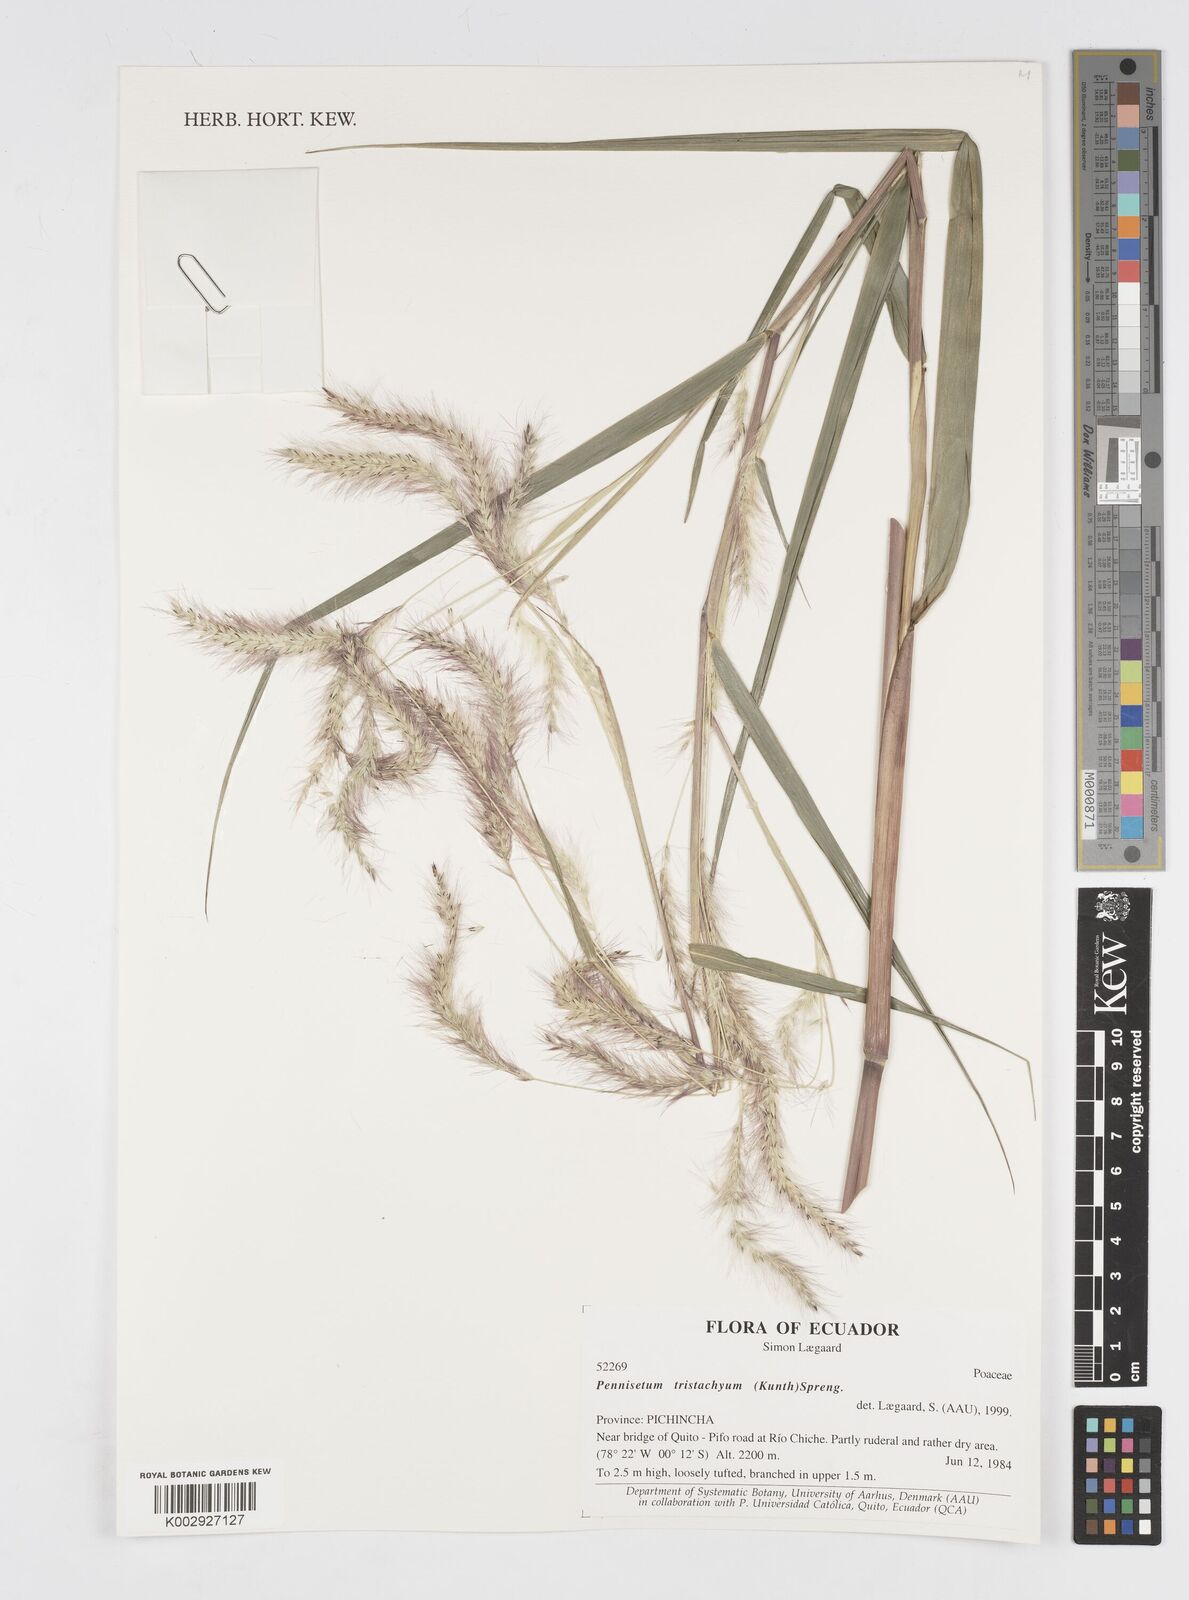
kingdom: Plantae
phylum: Tracheophyta
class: Liliopsida
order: Poales
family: Poaceae
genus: Cenchrus
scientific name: Cenchrus tristachyus
